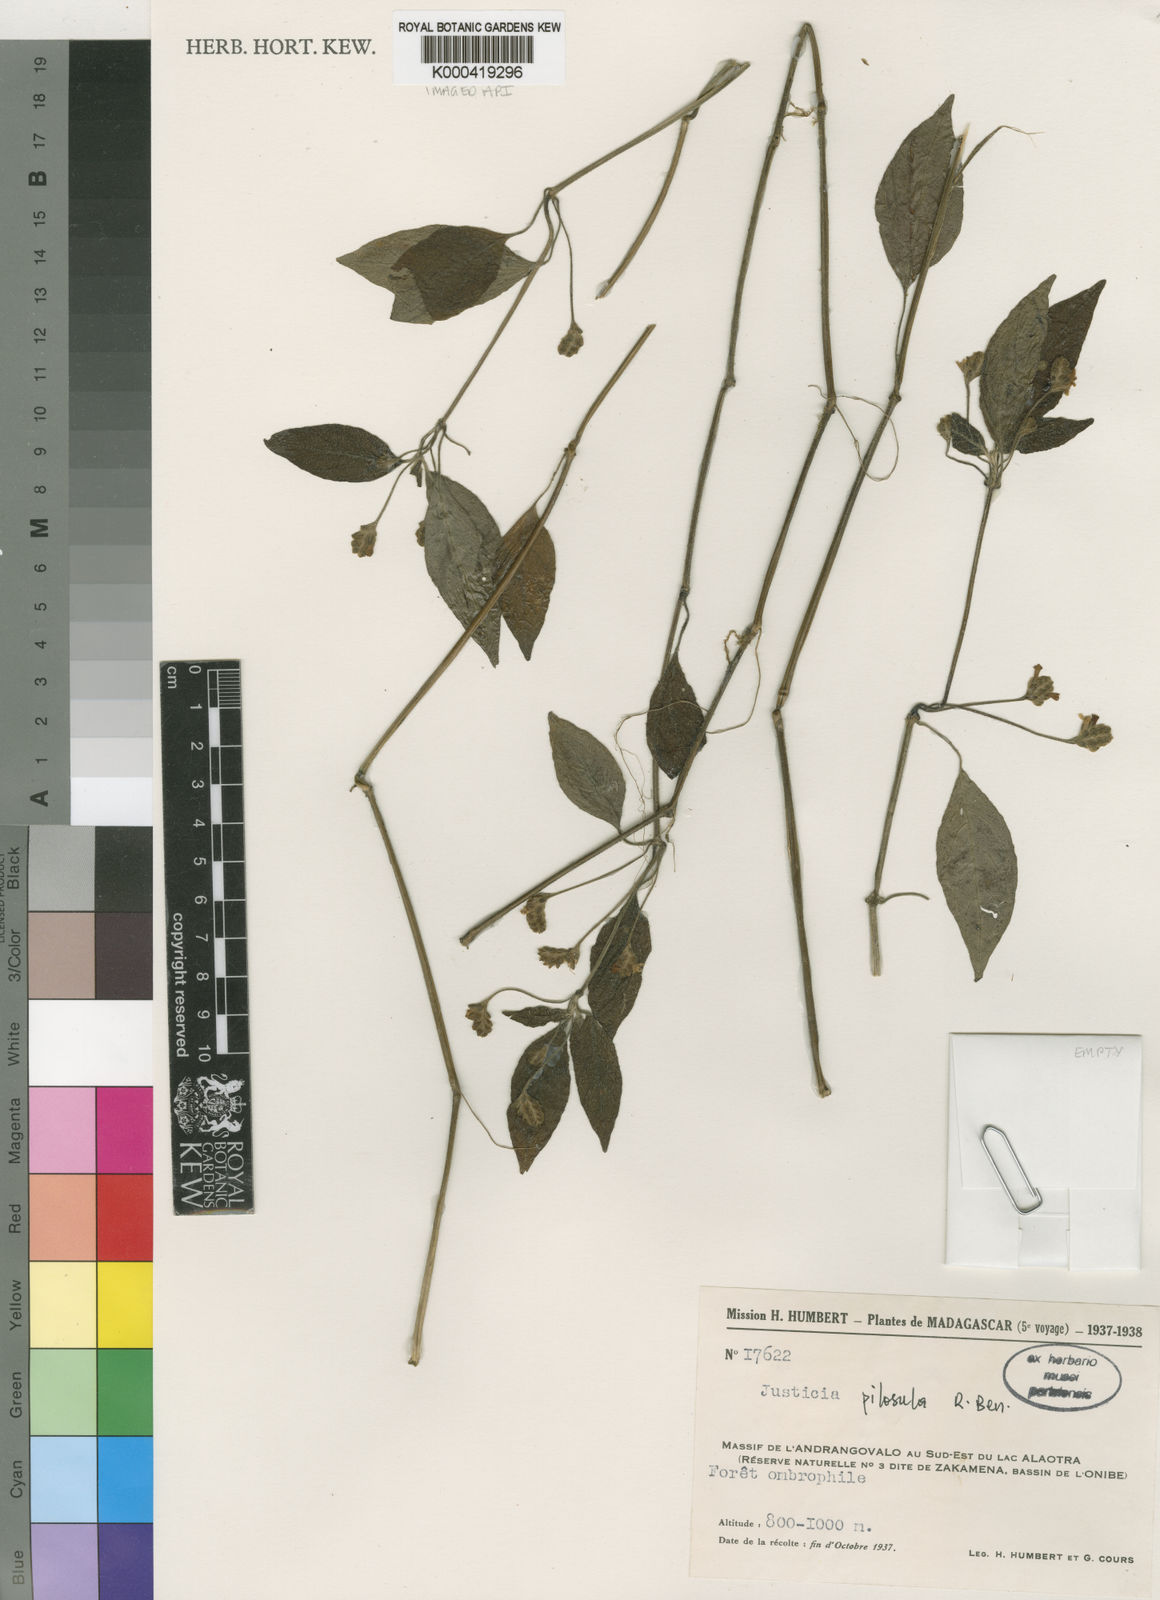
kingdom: Plantae
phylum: Tracheophyta
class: Magnoliopsida
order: Lamiales
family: Acanthaceae
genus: Justicia
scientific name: Justicia pilosula
